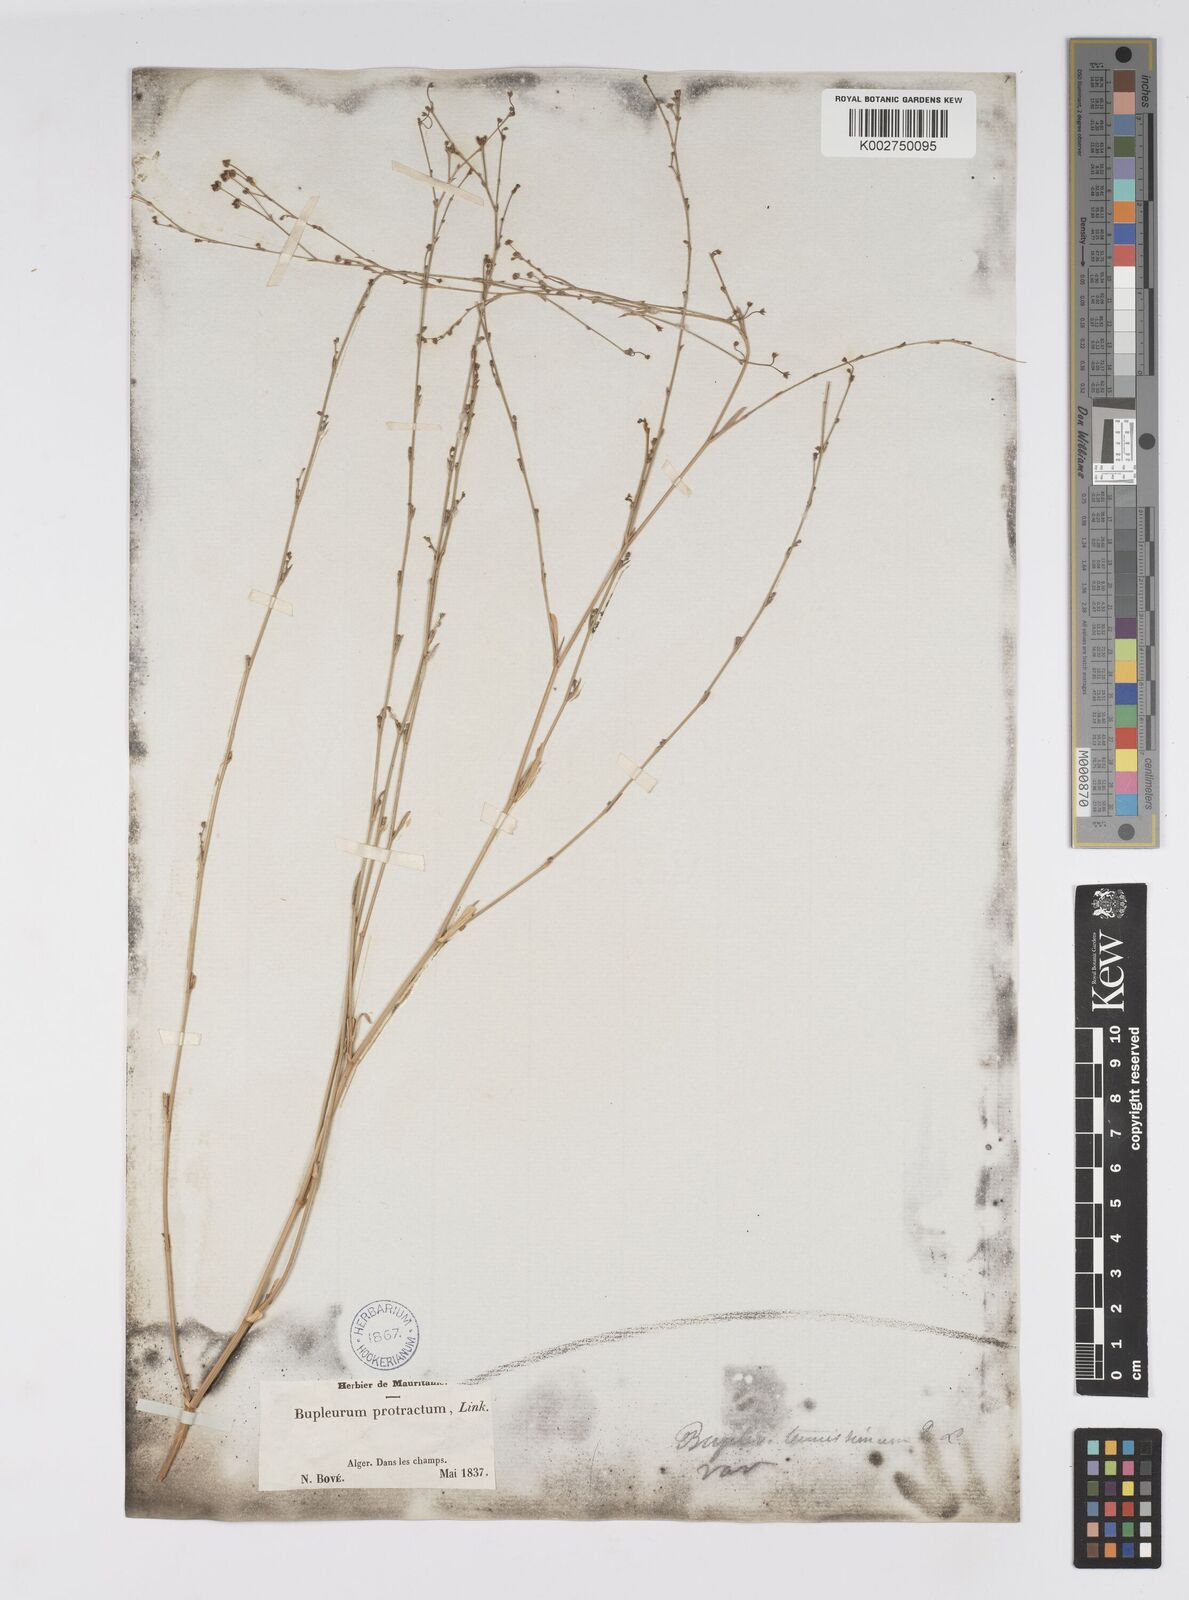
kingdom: Plantae
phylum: Tracheophyta
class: Magnoliopsida
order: Apiales
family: Apiaceae
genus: Bupleurum
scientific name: Bupleurum tenuissimum
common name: Slender hare's-ear
